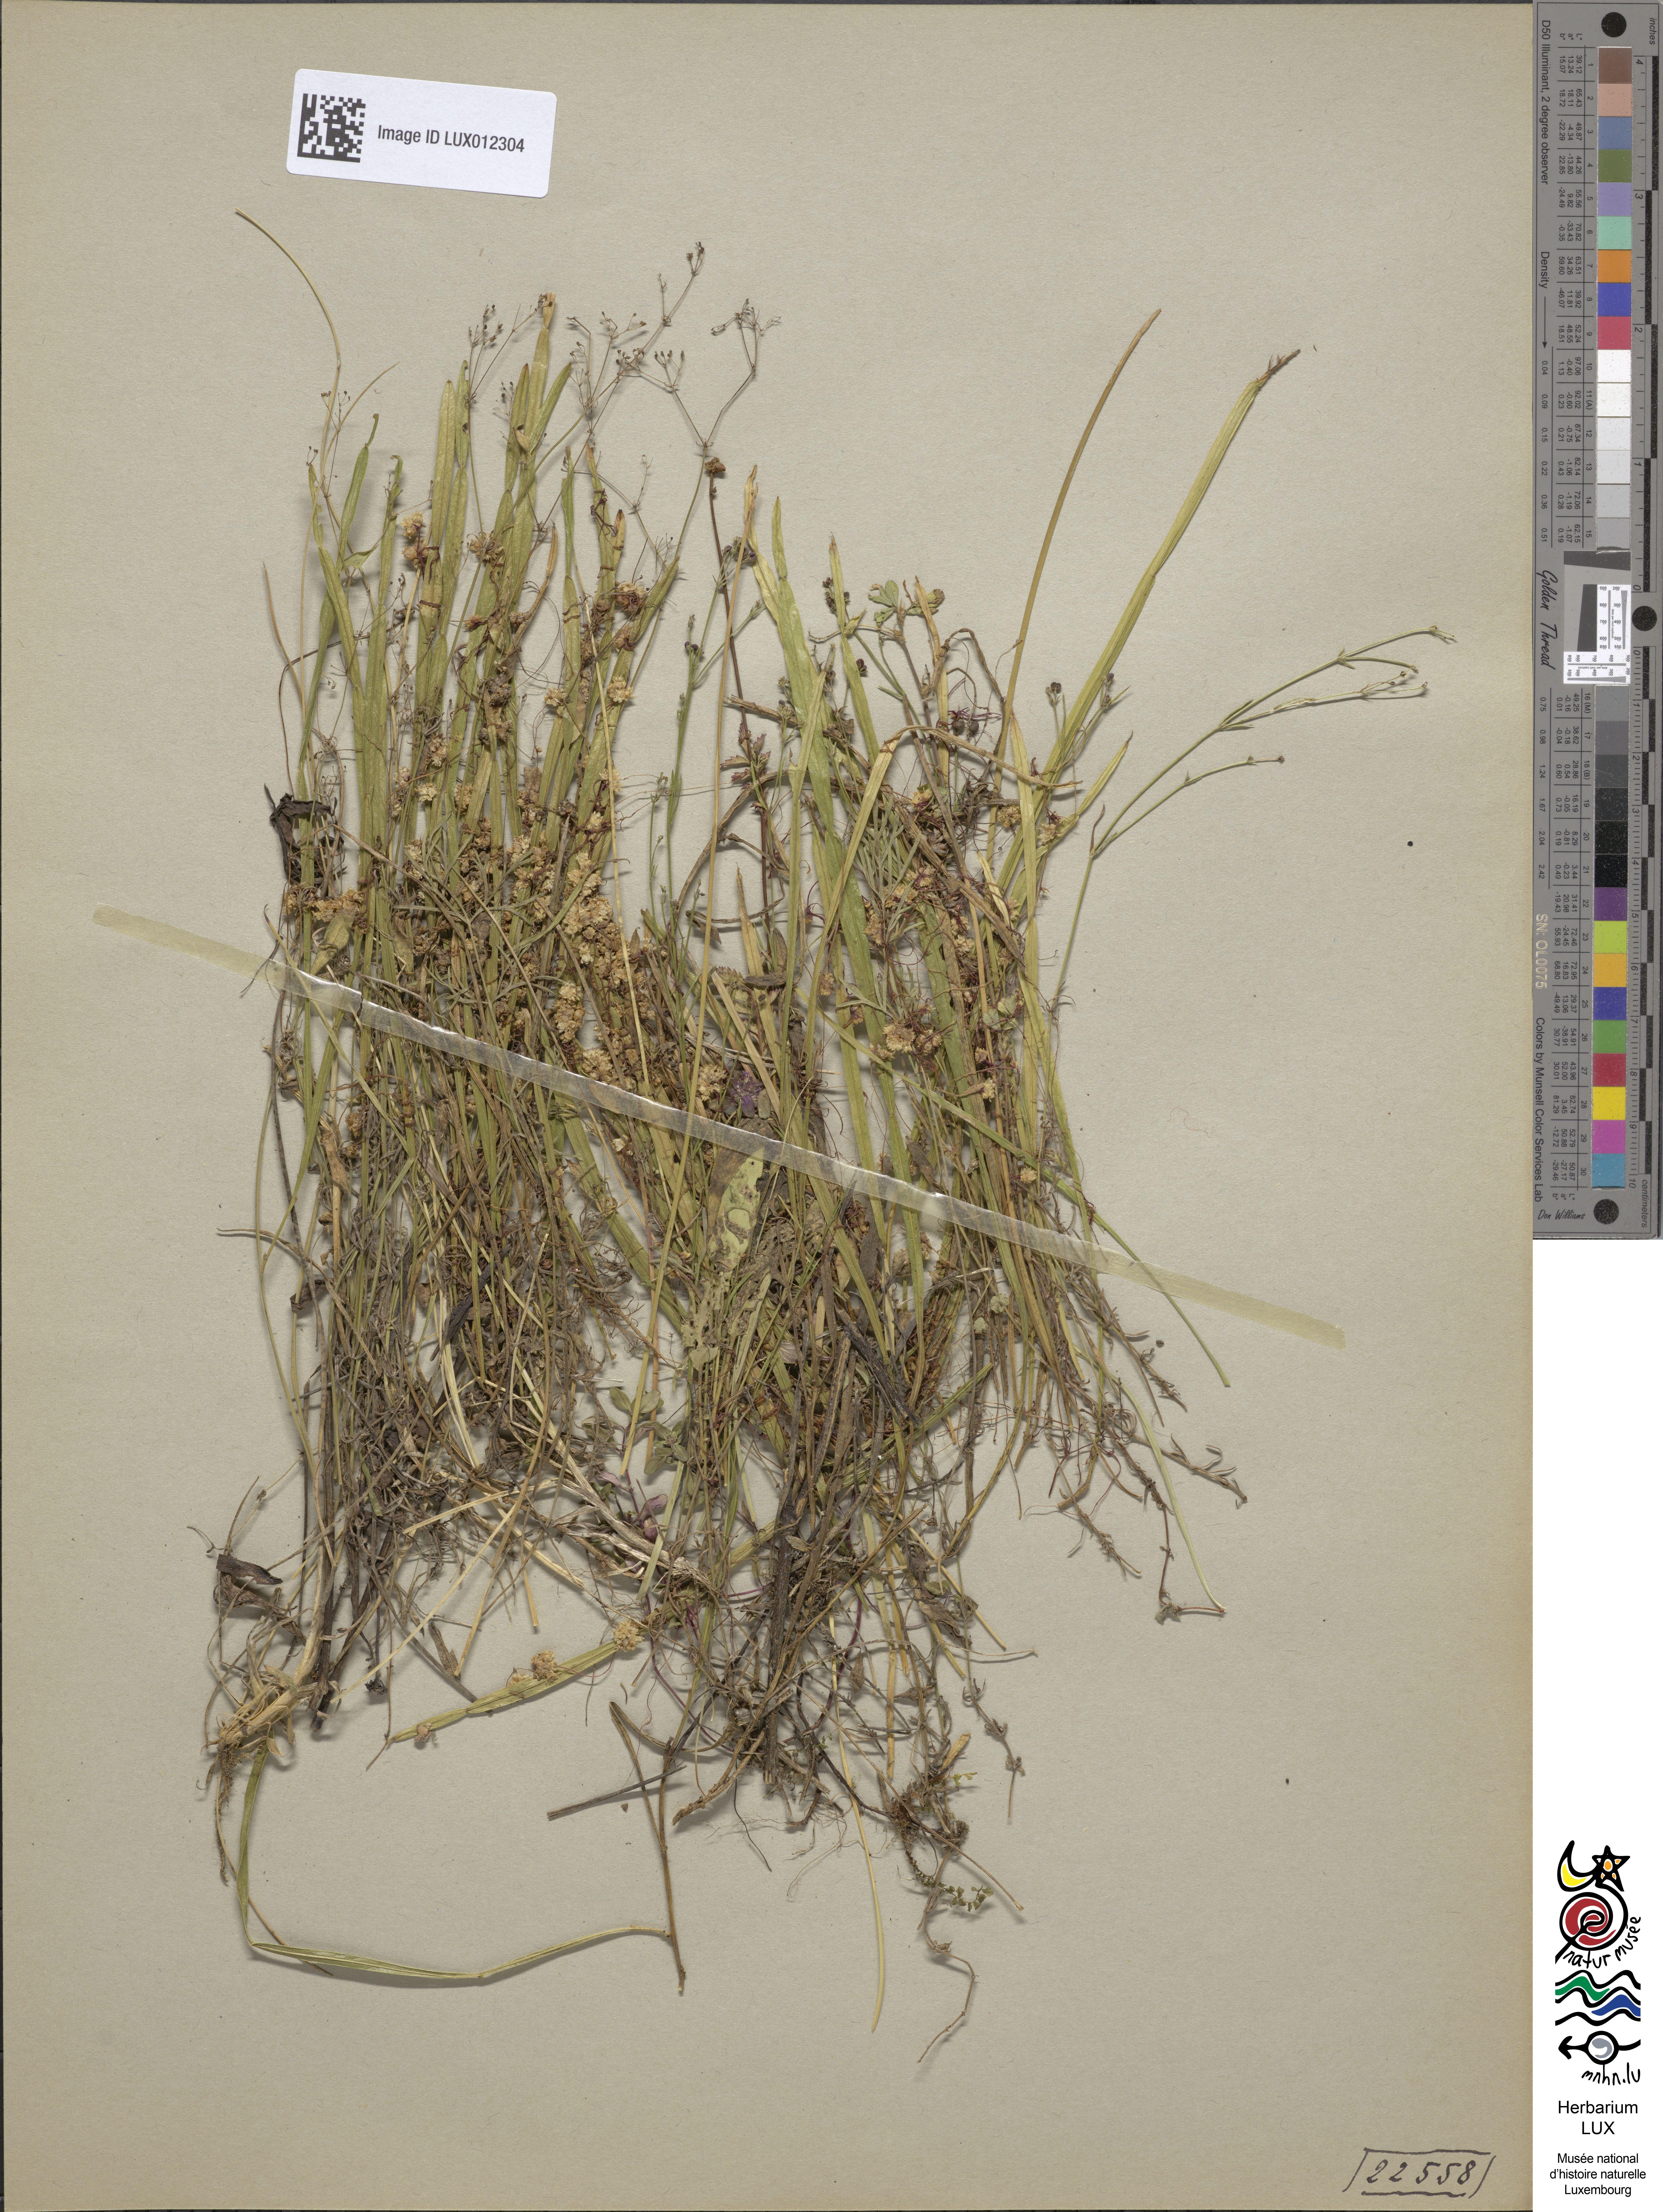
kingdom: Plantae
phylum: Tracheophyta
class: Magnoliopsida
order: Solanales
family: Convolvulaceae
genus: Cuscuta
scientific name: Cuscuta epithymum
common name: Clover dodder
